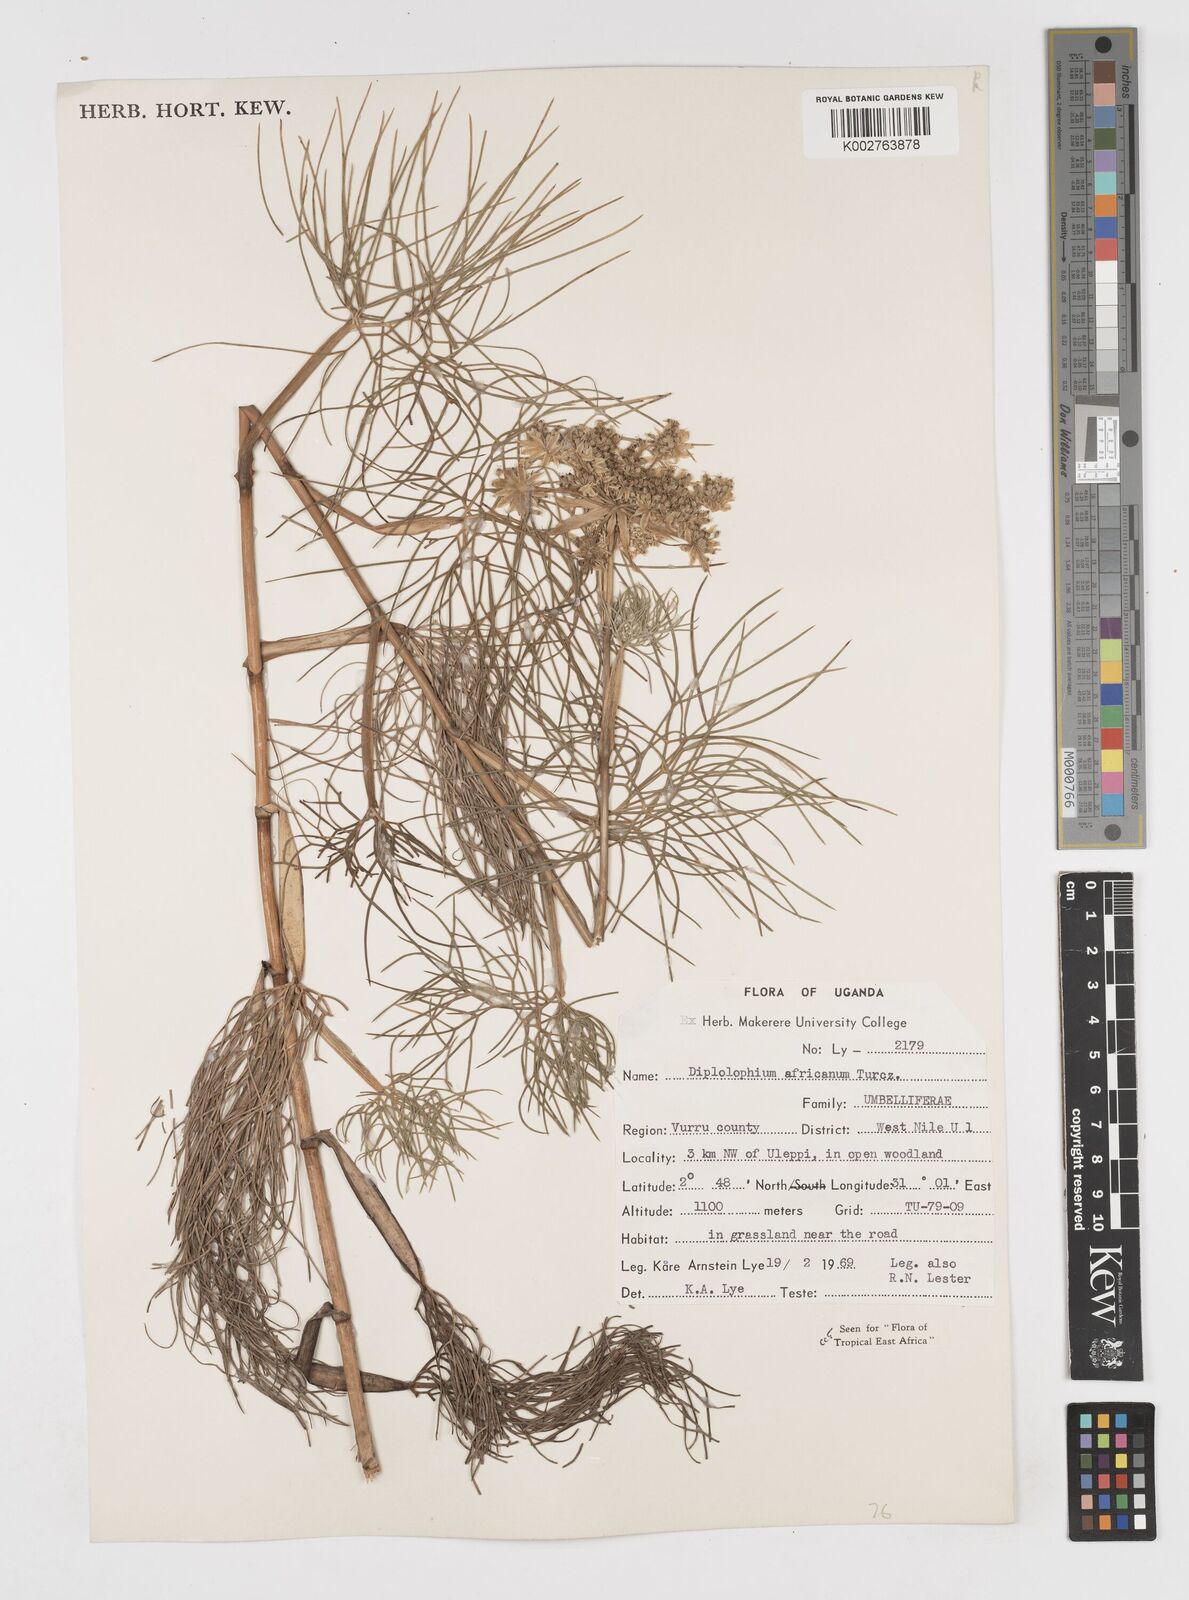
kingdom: Plantae
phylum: Tracheophyta
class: Magnoliopsida
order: Apiales
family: Apiaceae
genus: Diplolophium
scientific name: Diplolophium africanum
